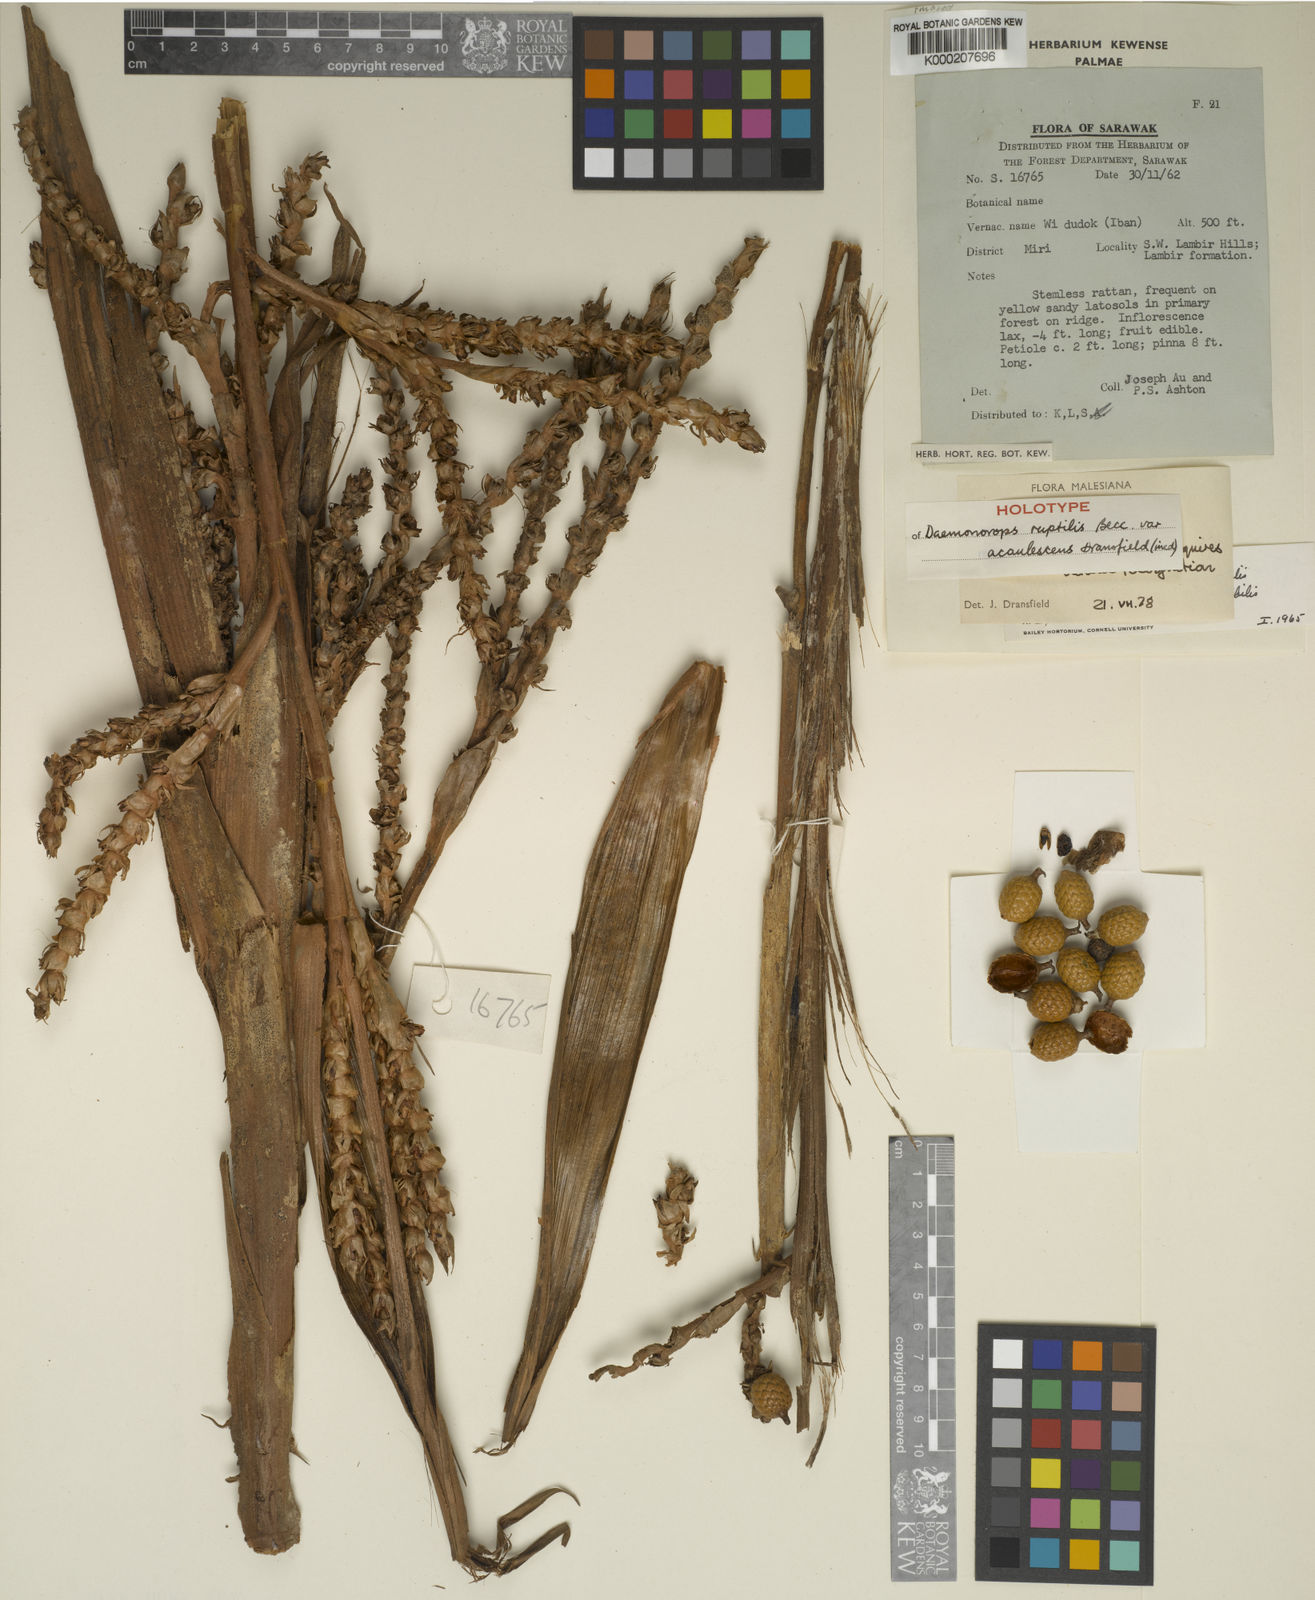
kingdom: Plantae
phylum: Tracheophyta
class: Liliopsida
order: Arecales
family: Arecaceae
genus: Calamus
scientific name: Calamus ruptiloides
